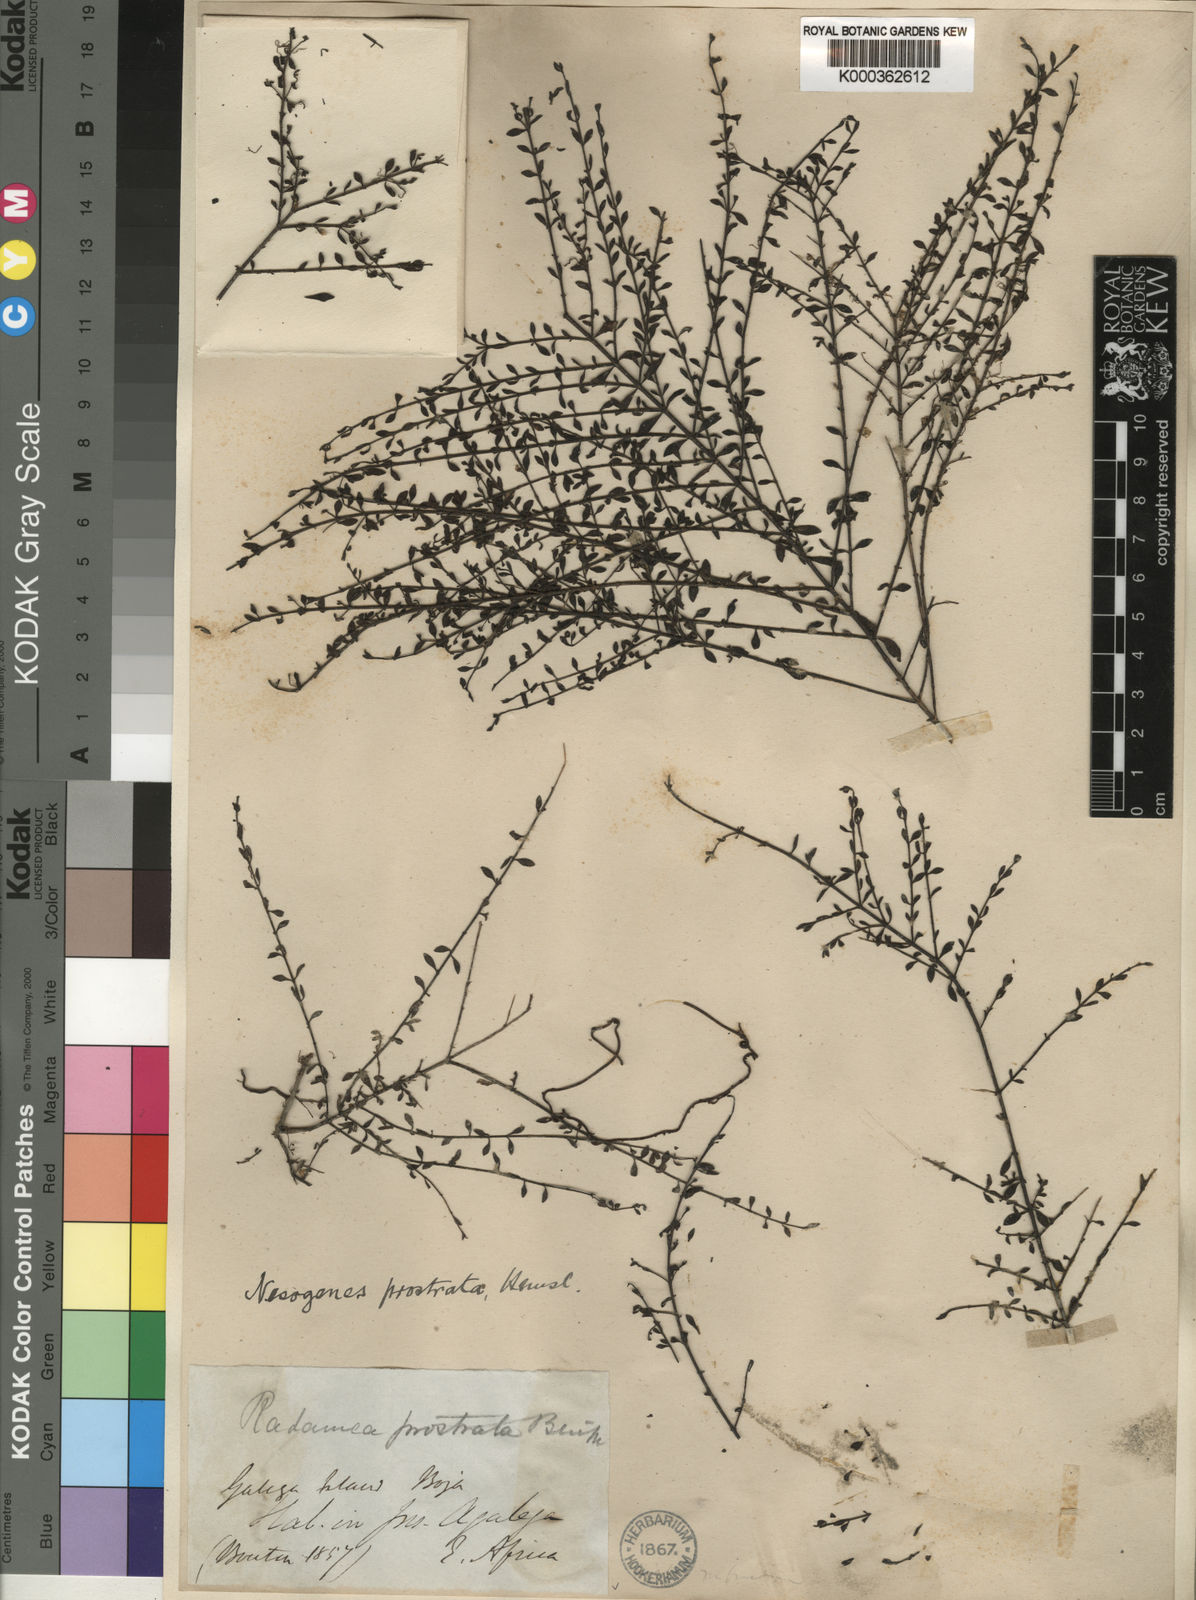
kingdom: Plantae
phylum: Tracheophyta
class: Magnoliopsida
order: Lamiales
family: Orobanchaceae
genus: Nesogenes
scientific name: Nesogenes prostrata
